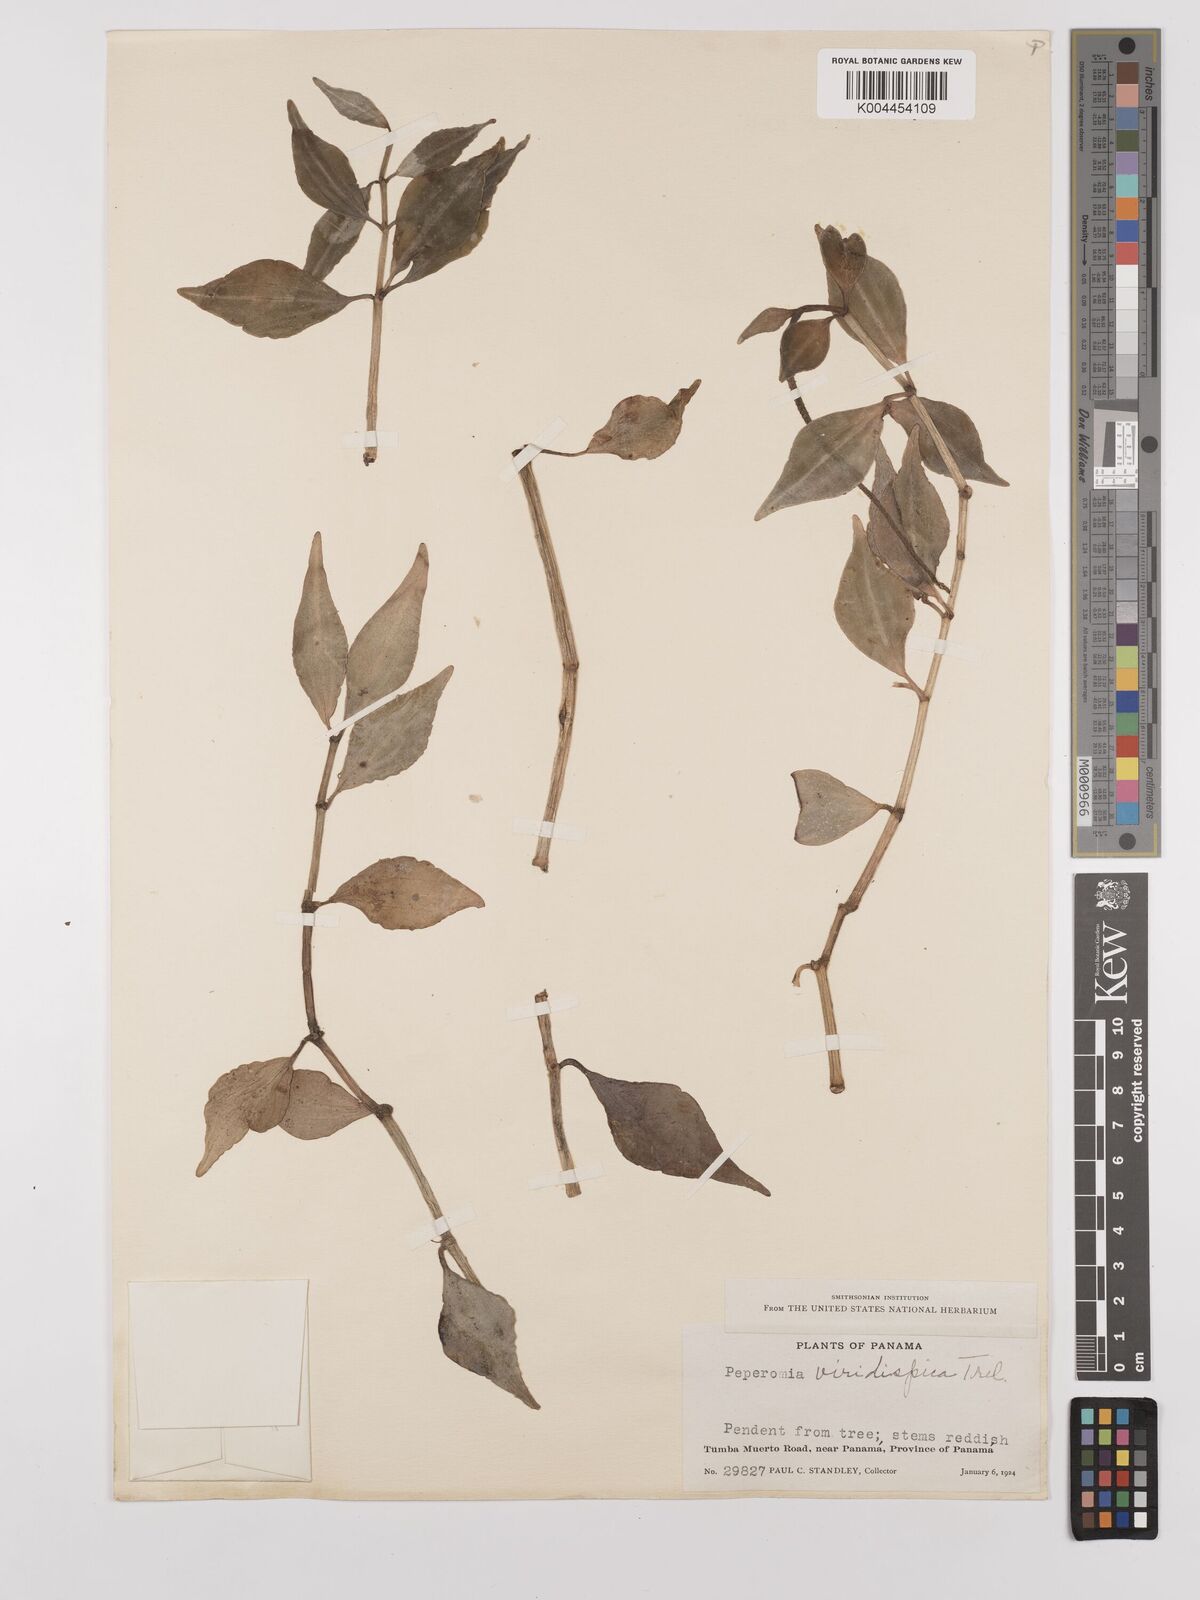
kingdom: Plantae
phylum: Tracheophyta
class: Magnoliopsida
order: Piperales
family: Piperaceae
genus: Peperomia
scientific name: Peperomia angustata
